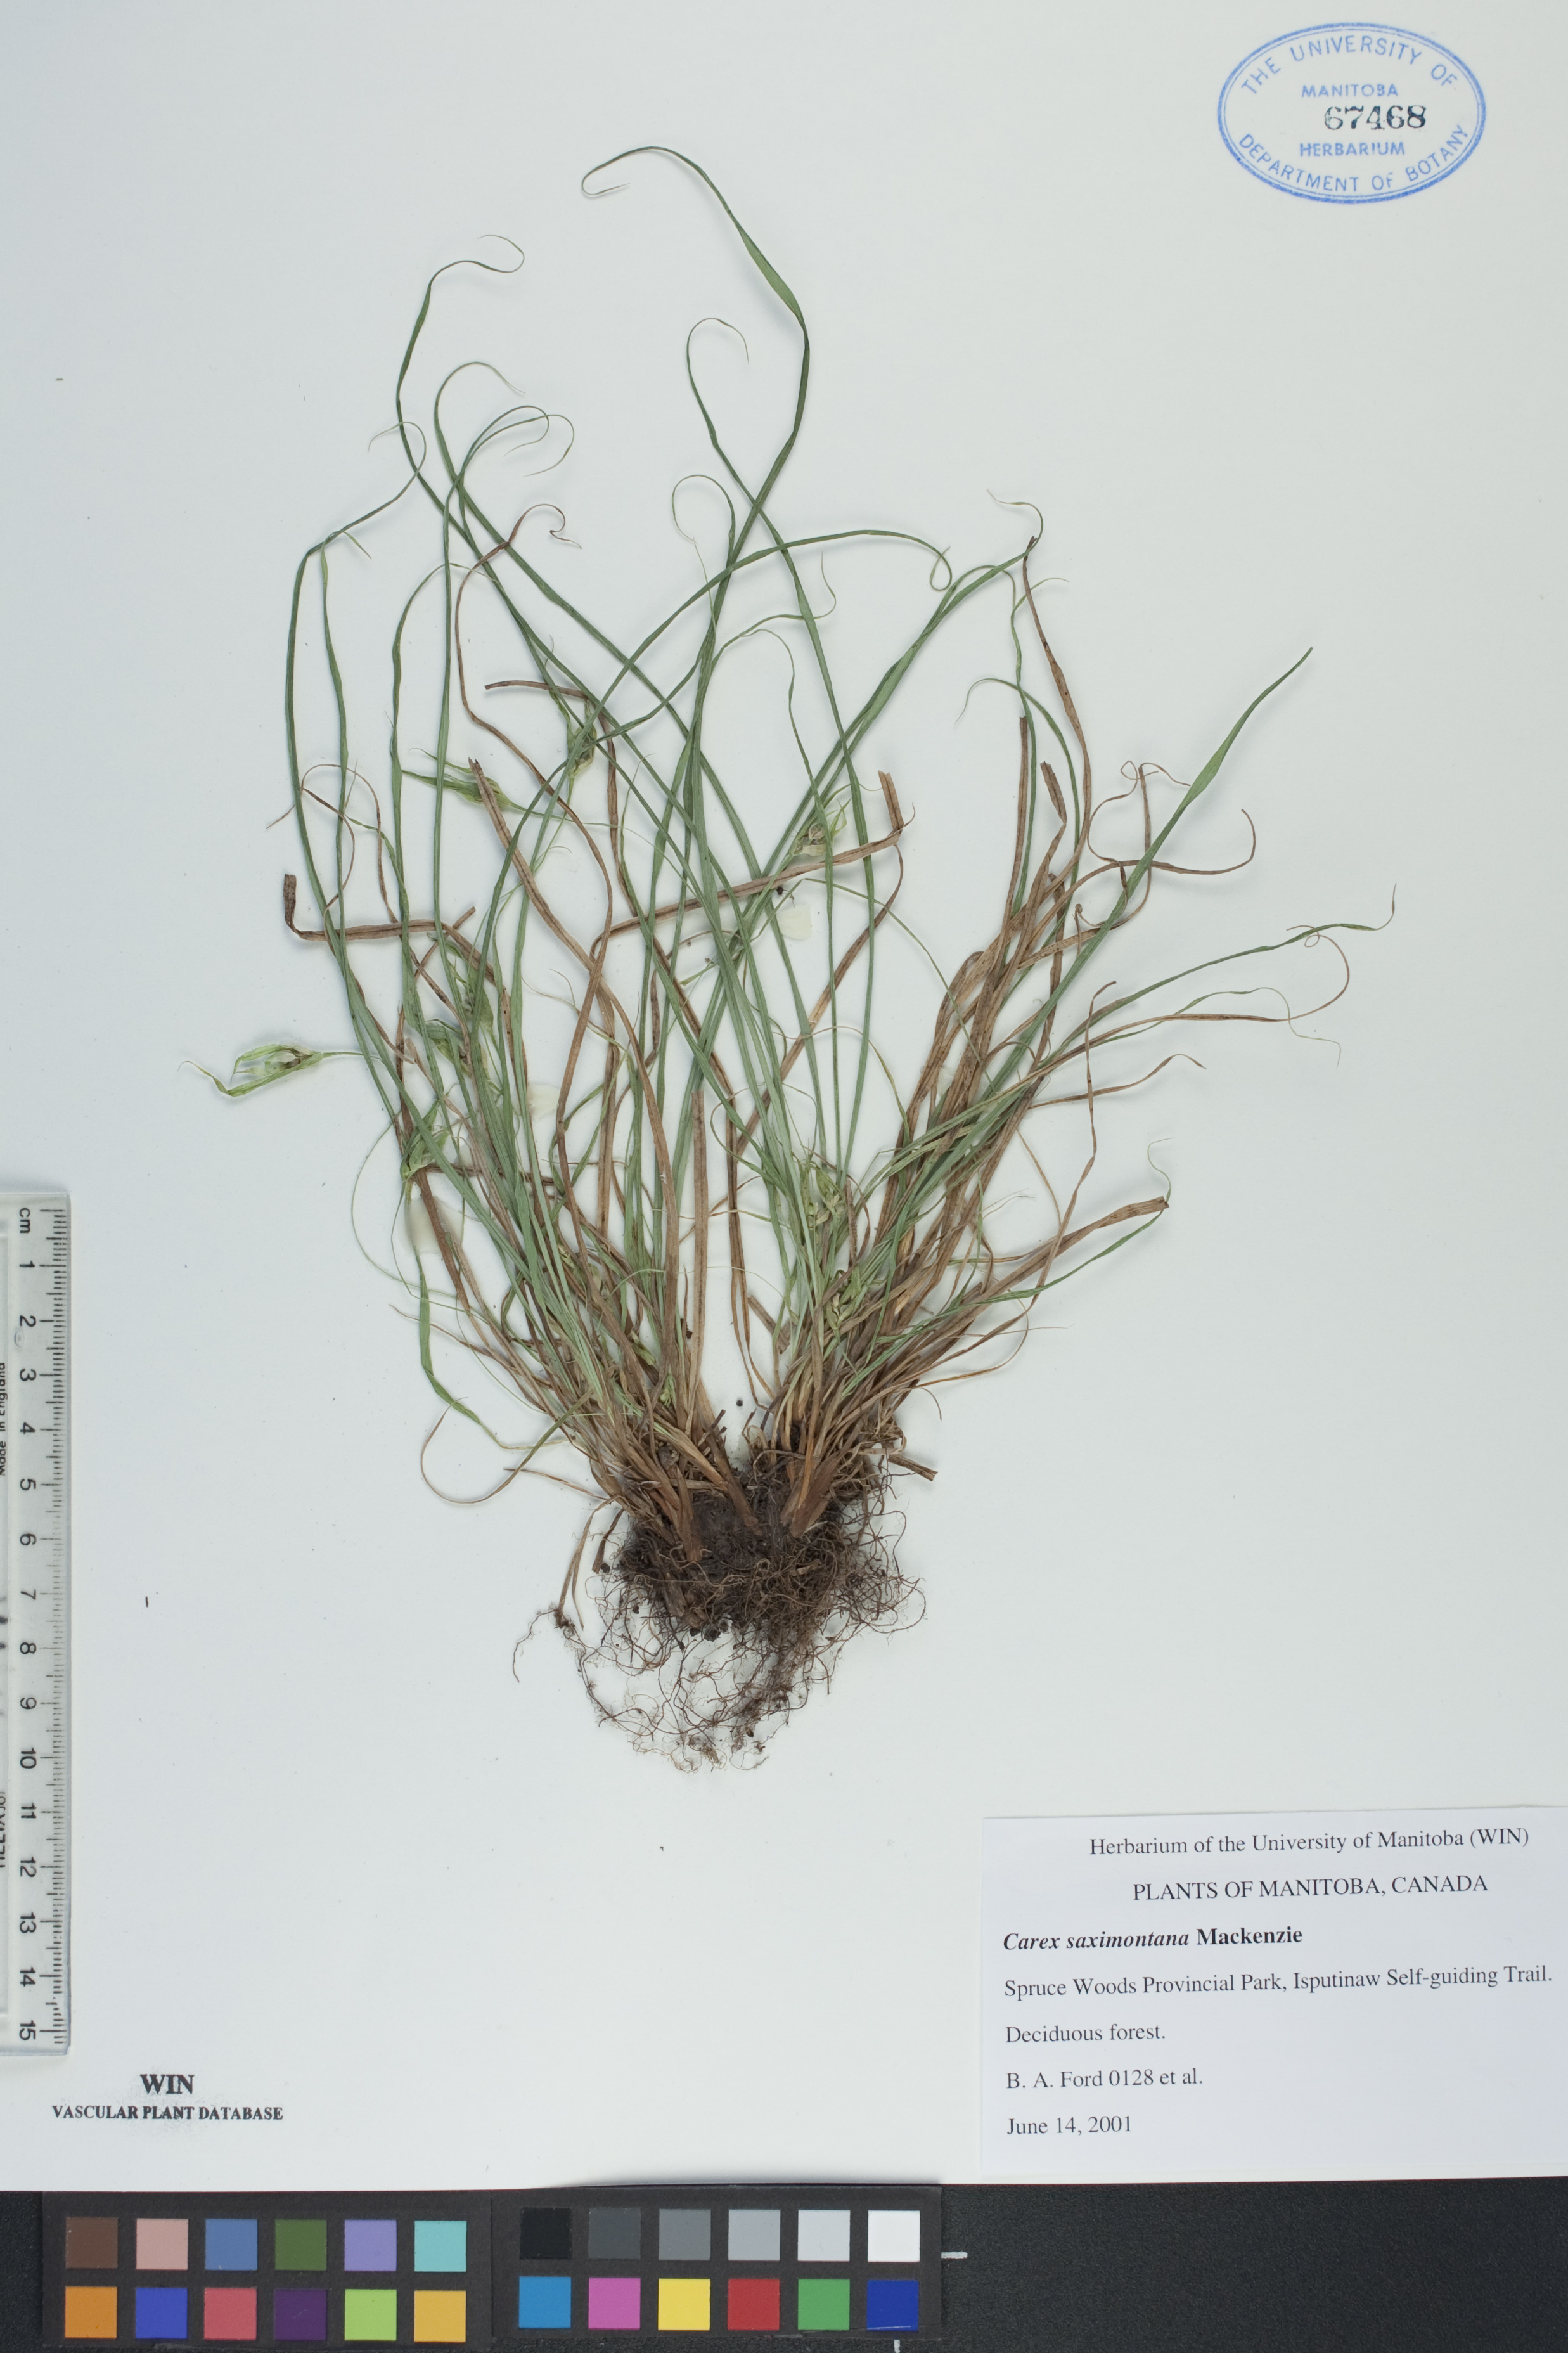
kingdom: Plantae
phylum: Tracheophyta
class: Liliopsida
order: Poales
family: Cyperaceae
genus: Carex
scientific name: Carex saximontana
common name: Rocky mountain sedge
